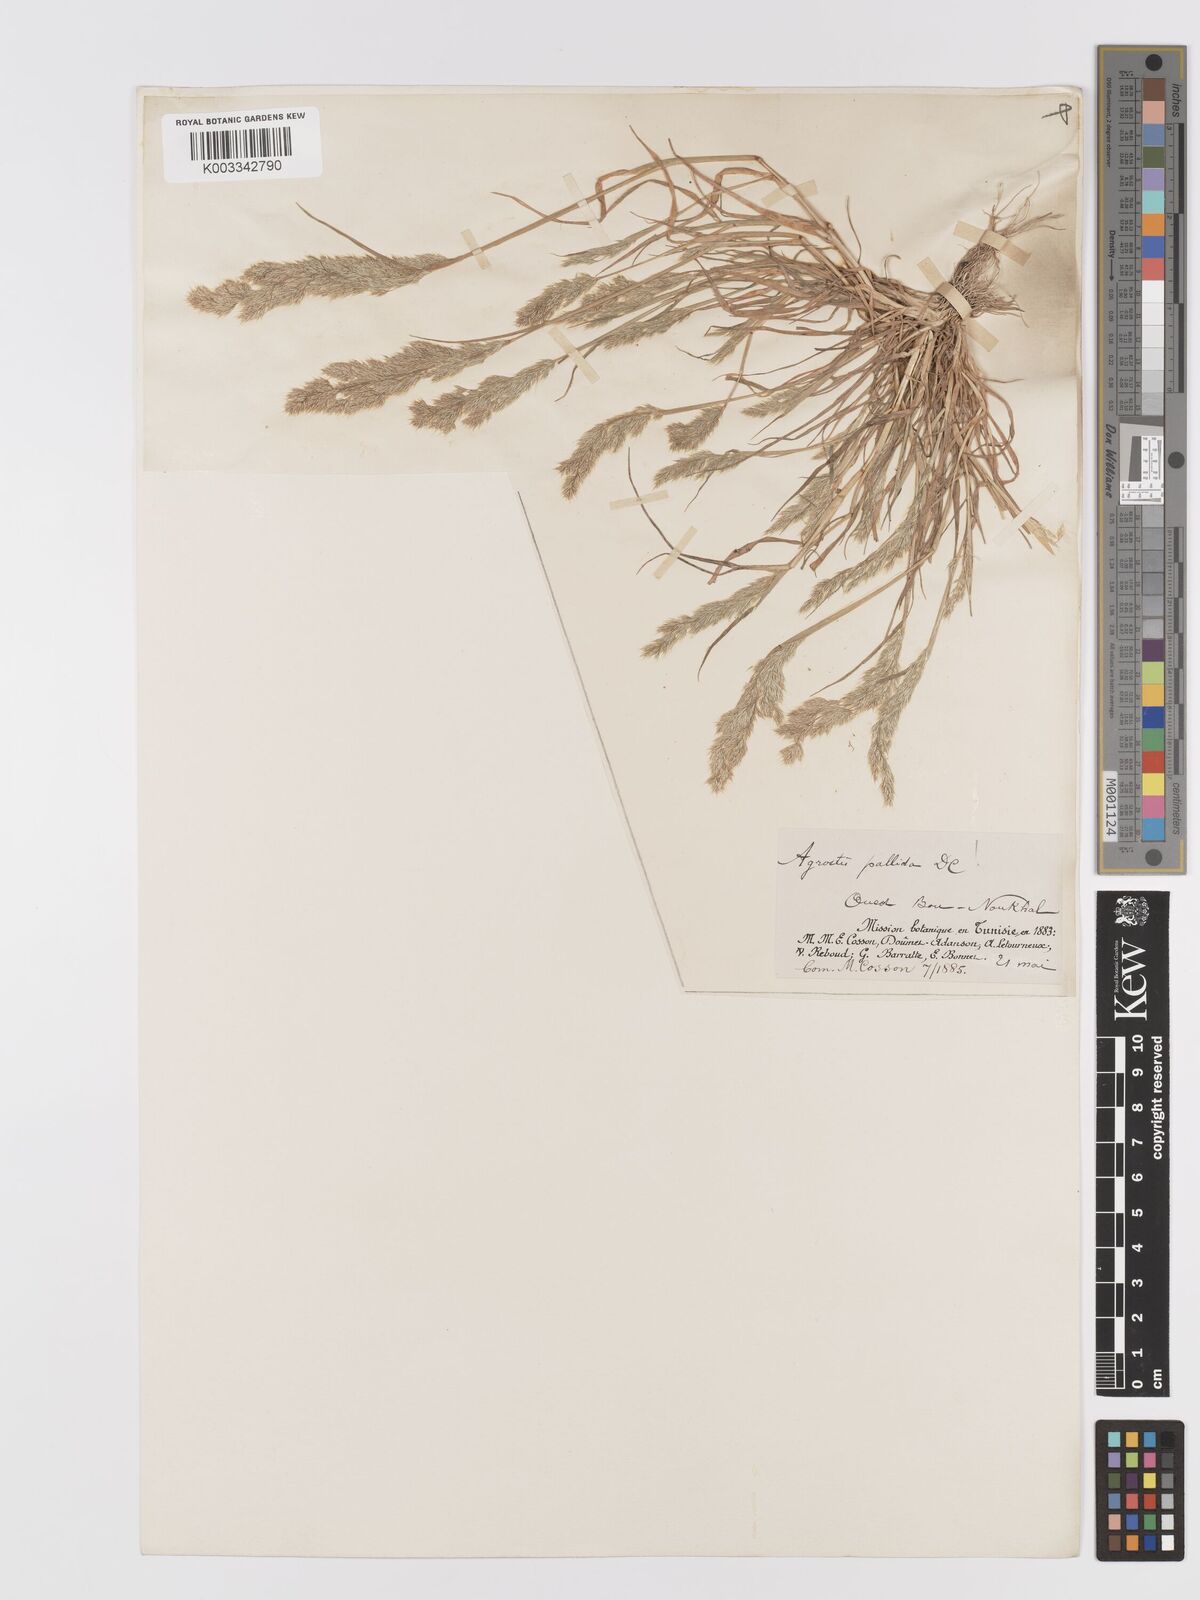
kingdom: Plantae
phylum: Tracheophyta
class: Liliopsida
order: Poales
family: Poaceae
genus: Agrostis
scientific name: Agrostis pourretii
